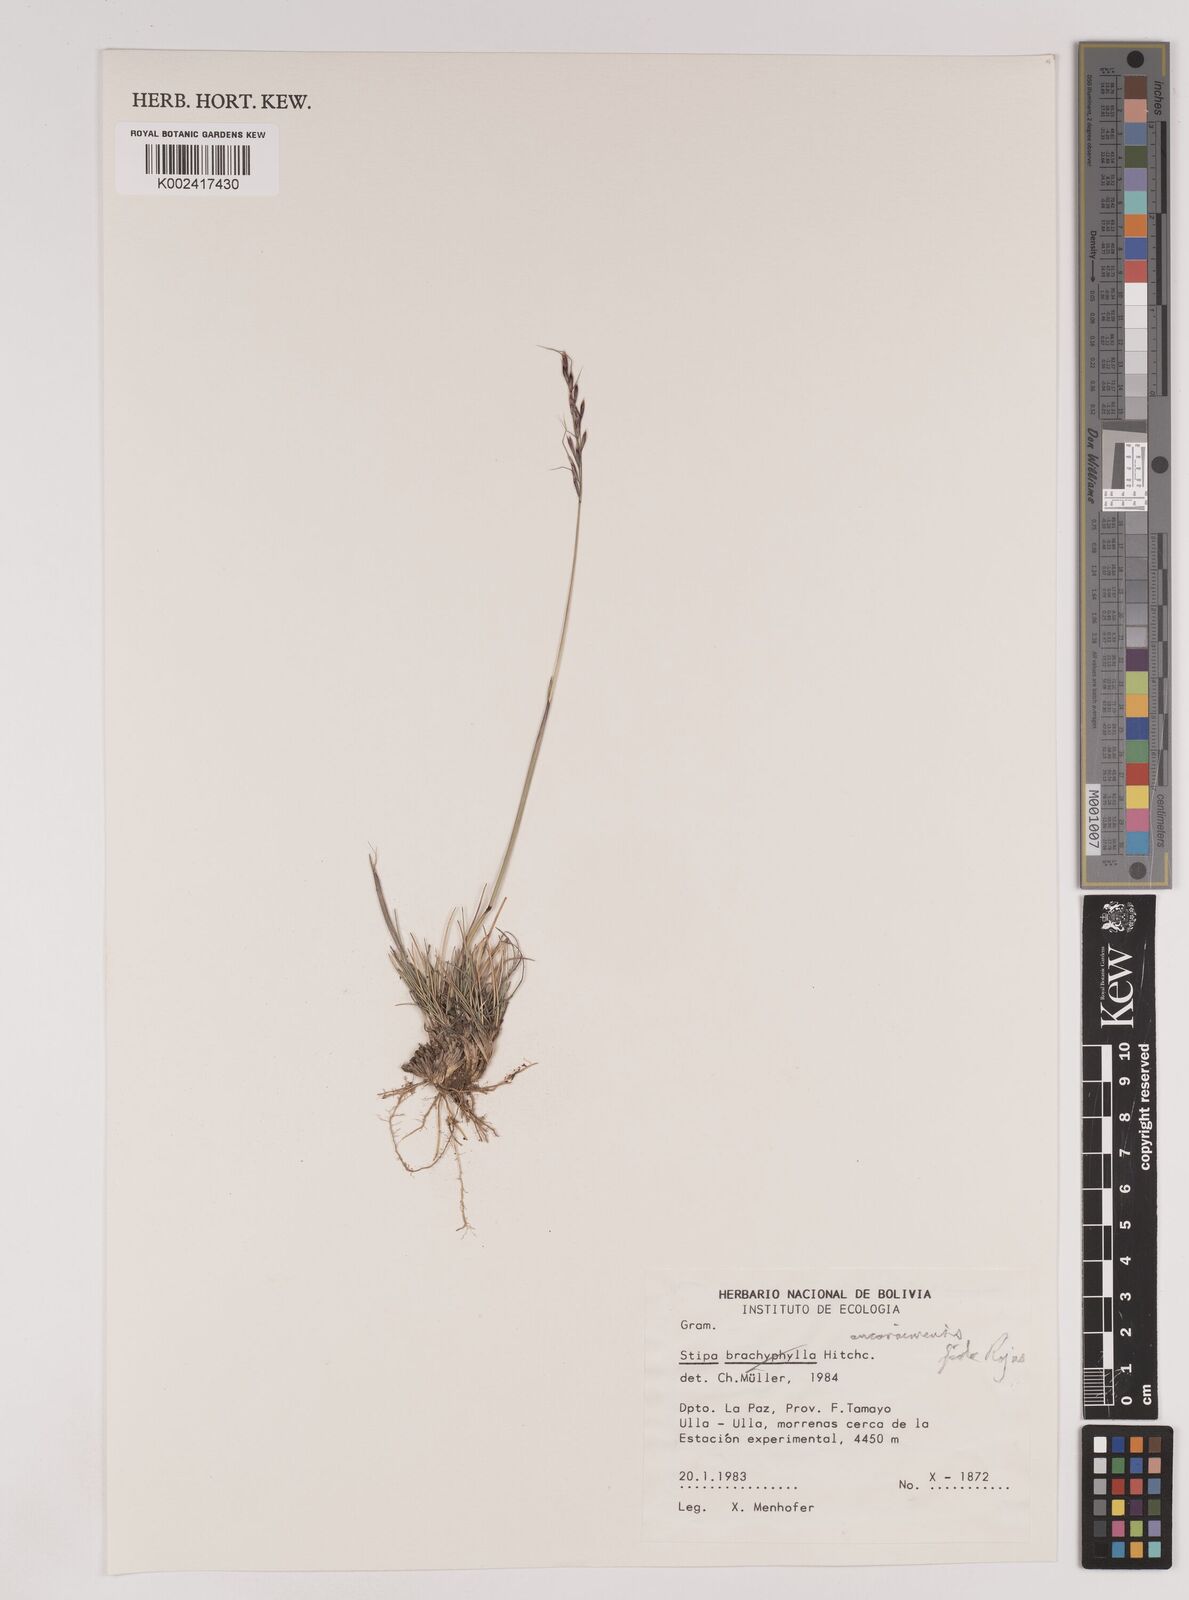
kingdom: Plantae
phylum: Tracheophyta
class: Liliopsida
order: Poales
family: Poaceae
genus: Nassella
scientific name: Nassella ancoraimensis
